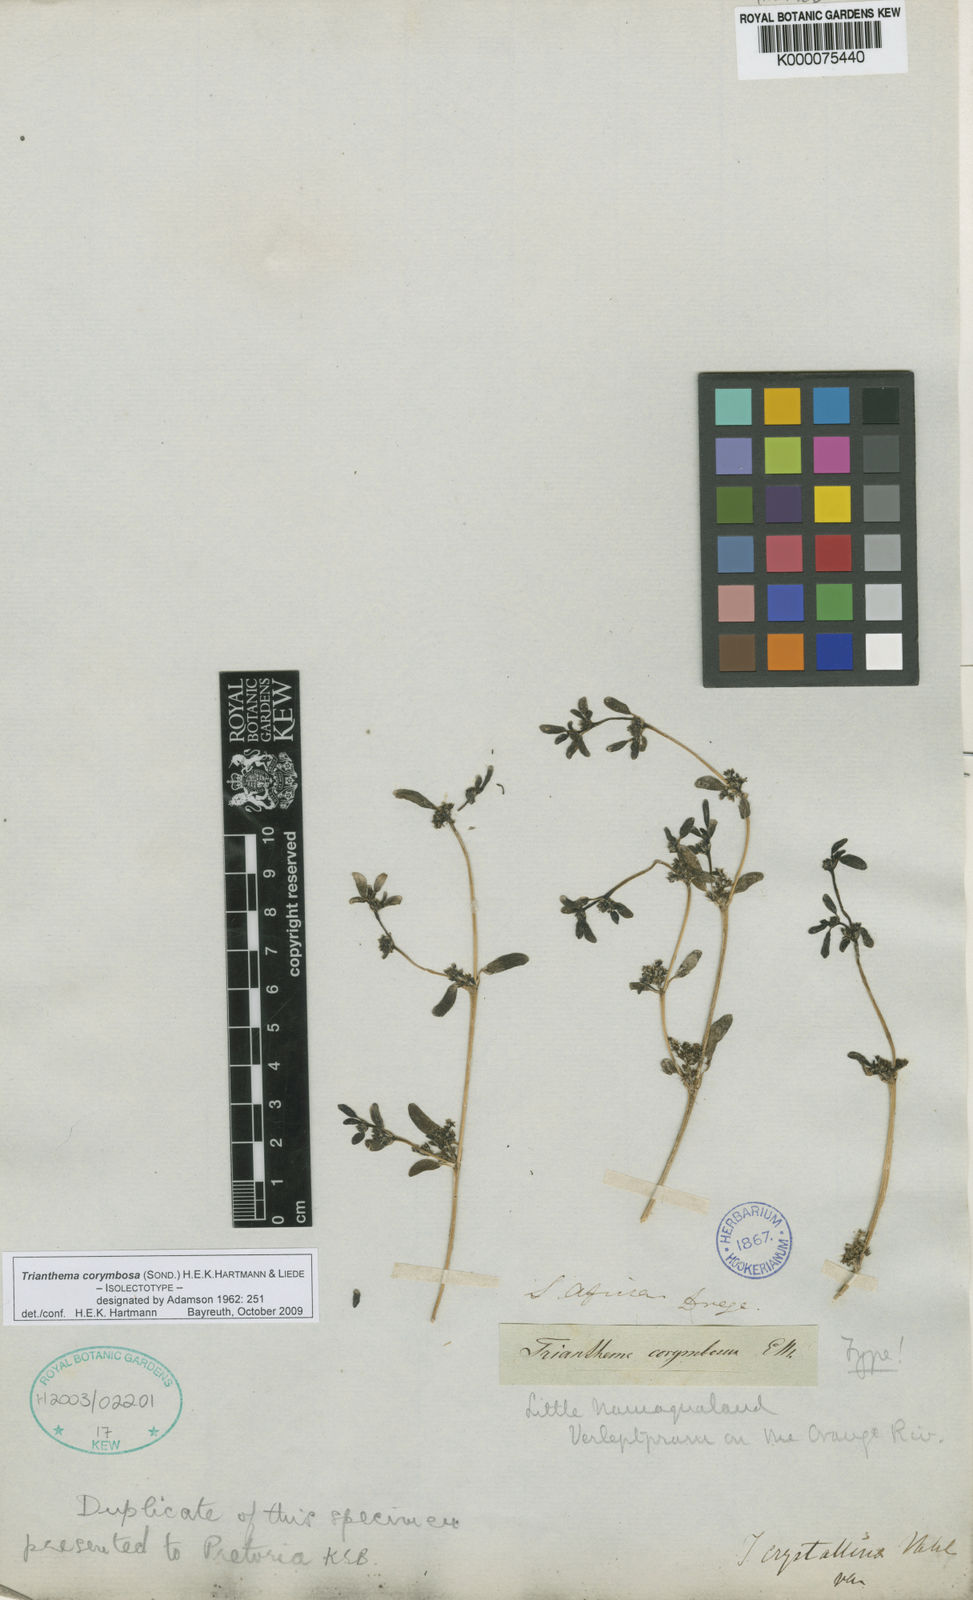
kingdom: Plantae
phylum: Tracheophyta
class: Magnoliopsida
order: Caryophyllales
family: Aizoaceae
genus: Trianthema
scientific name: Trianthema
